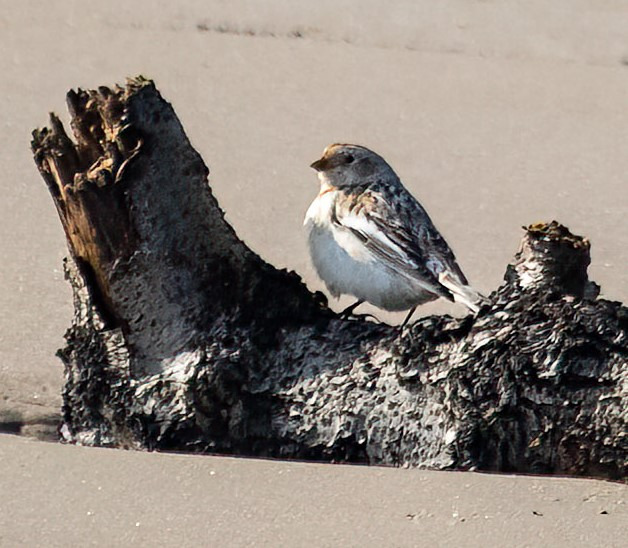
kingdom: Animalia
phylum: Chordata
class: Aves
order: Passeriformes
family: Calcariidae
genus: Plectrophenax
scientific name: Plectrophenax nivalis
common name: Snespurv
